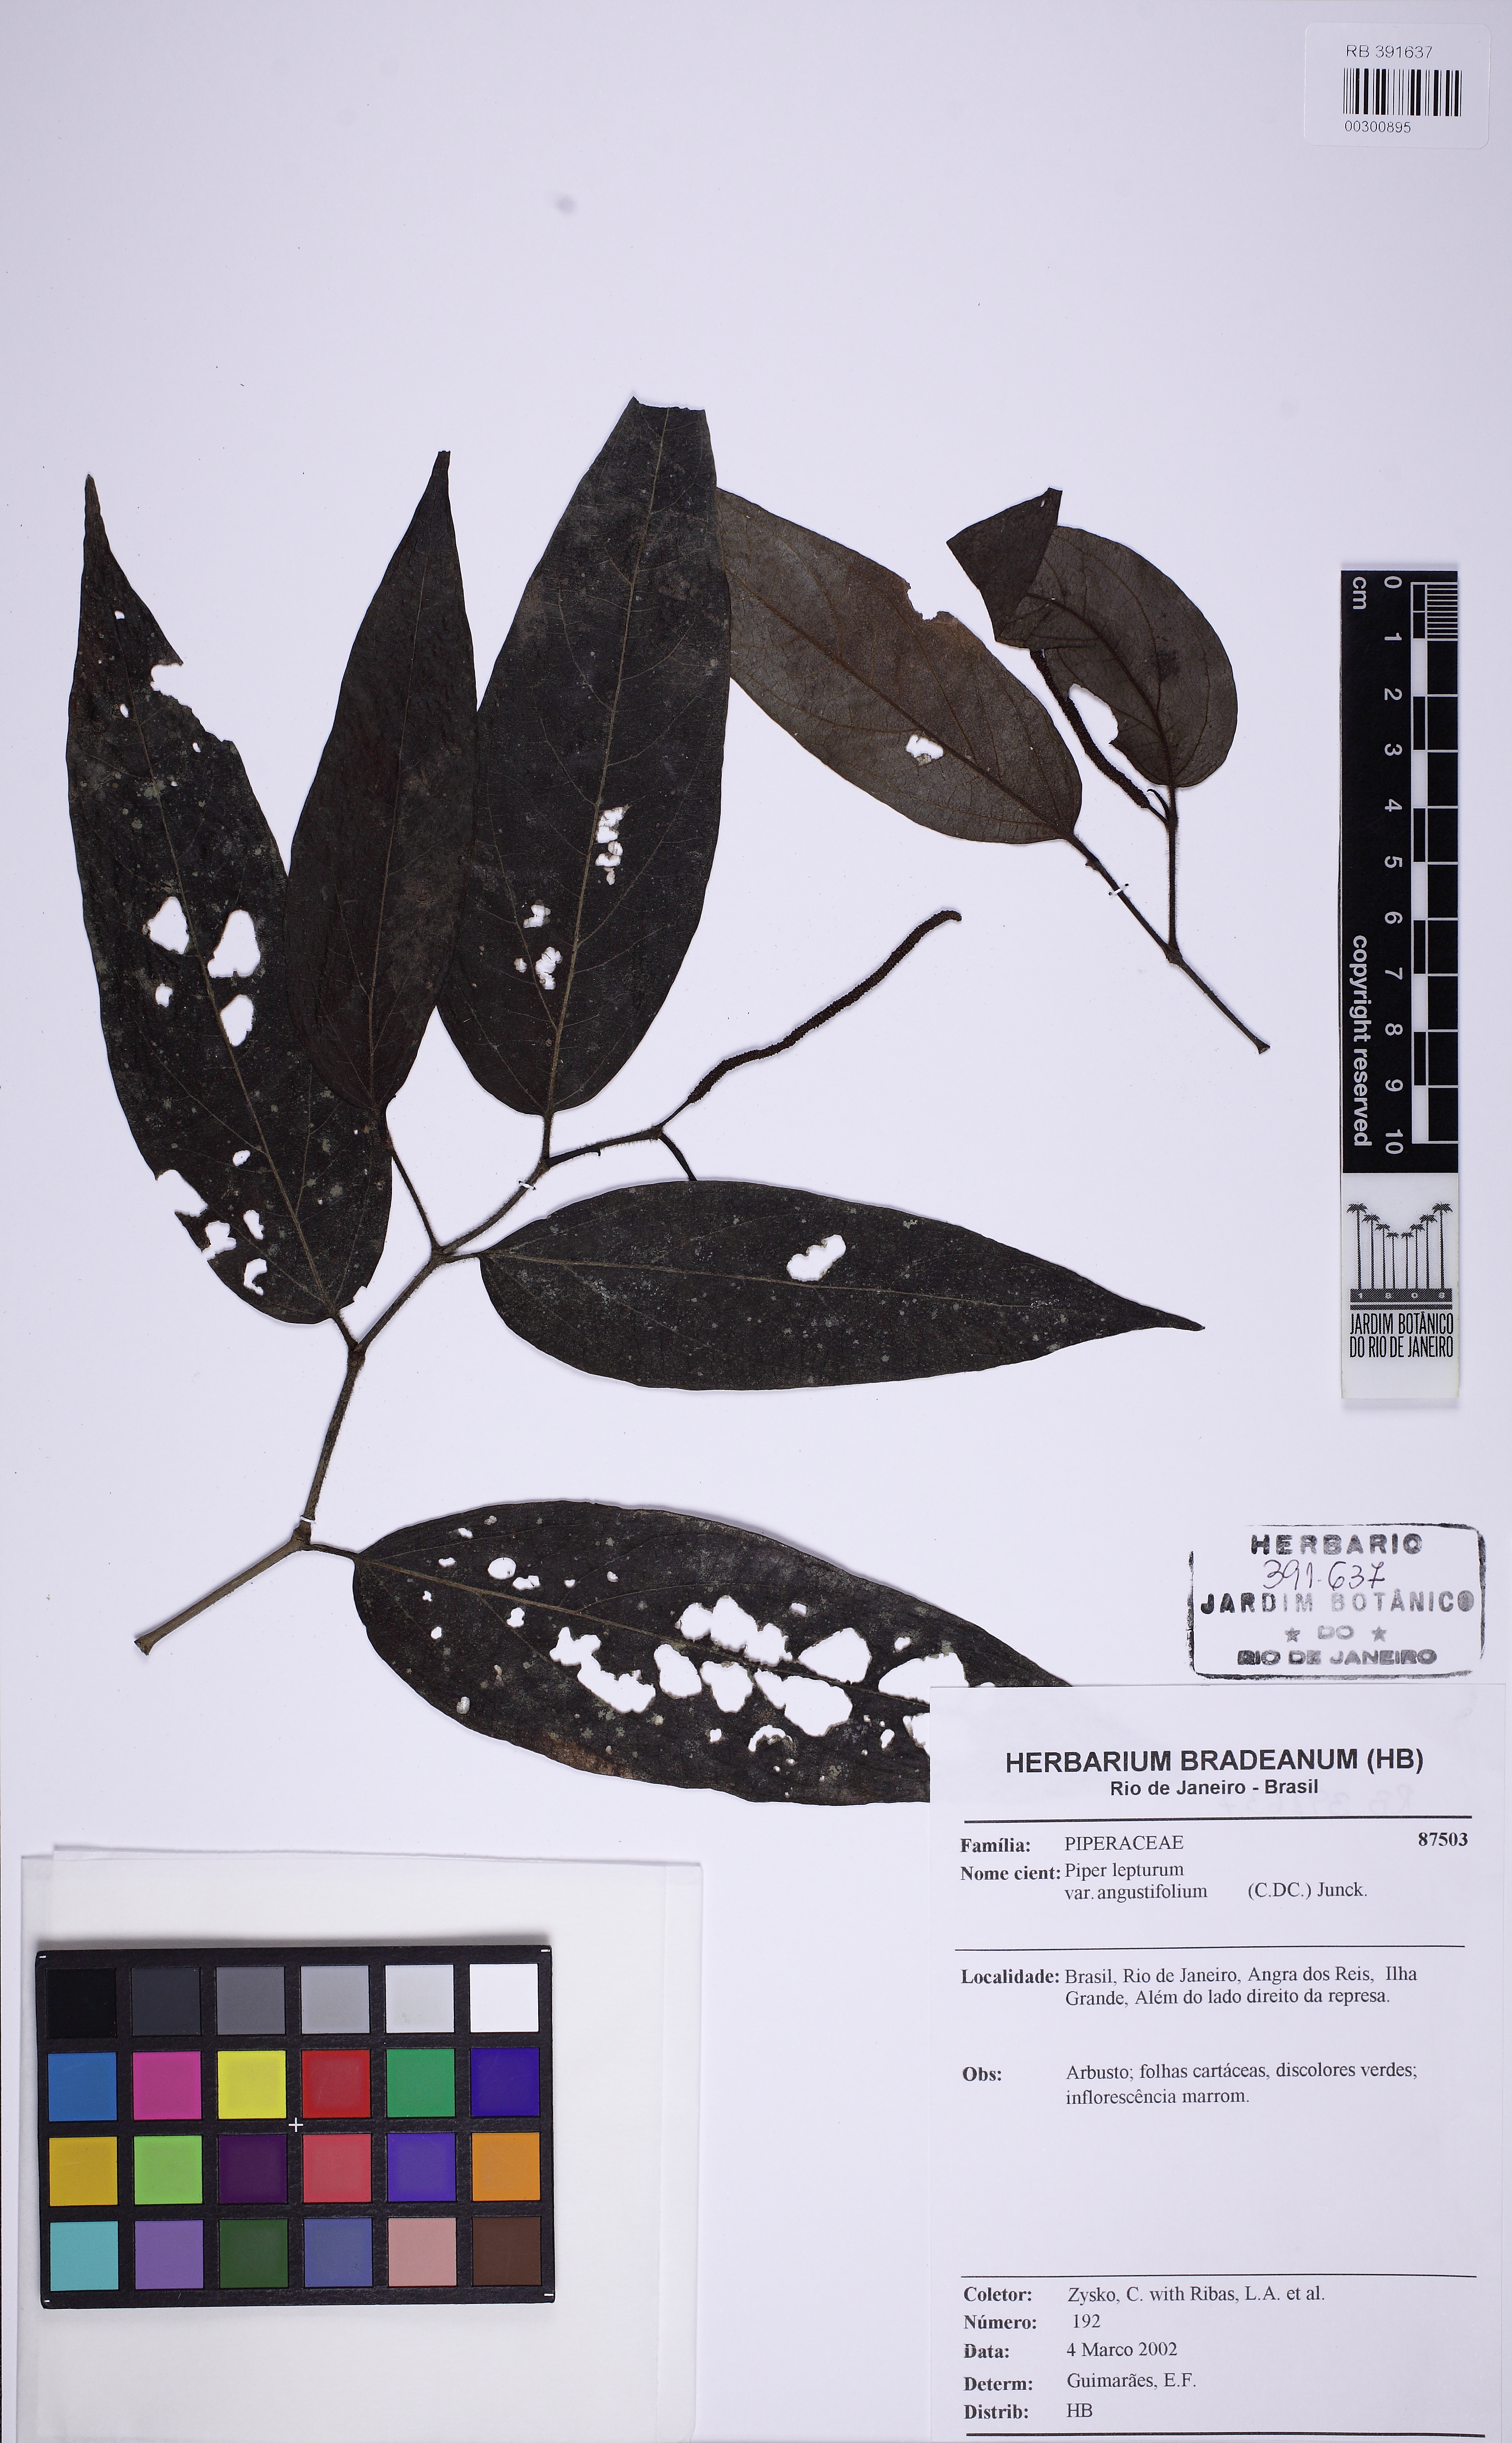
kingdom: Plantae
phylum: Tracheophyta
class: Magnoliopsida
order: Piperales
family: Piperaceae
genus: Piper
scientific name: Piper lepturum
